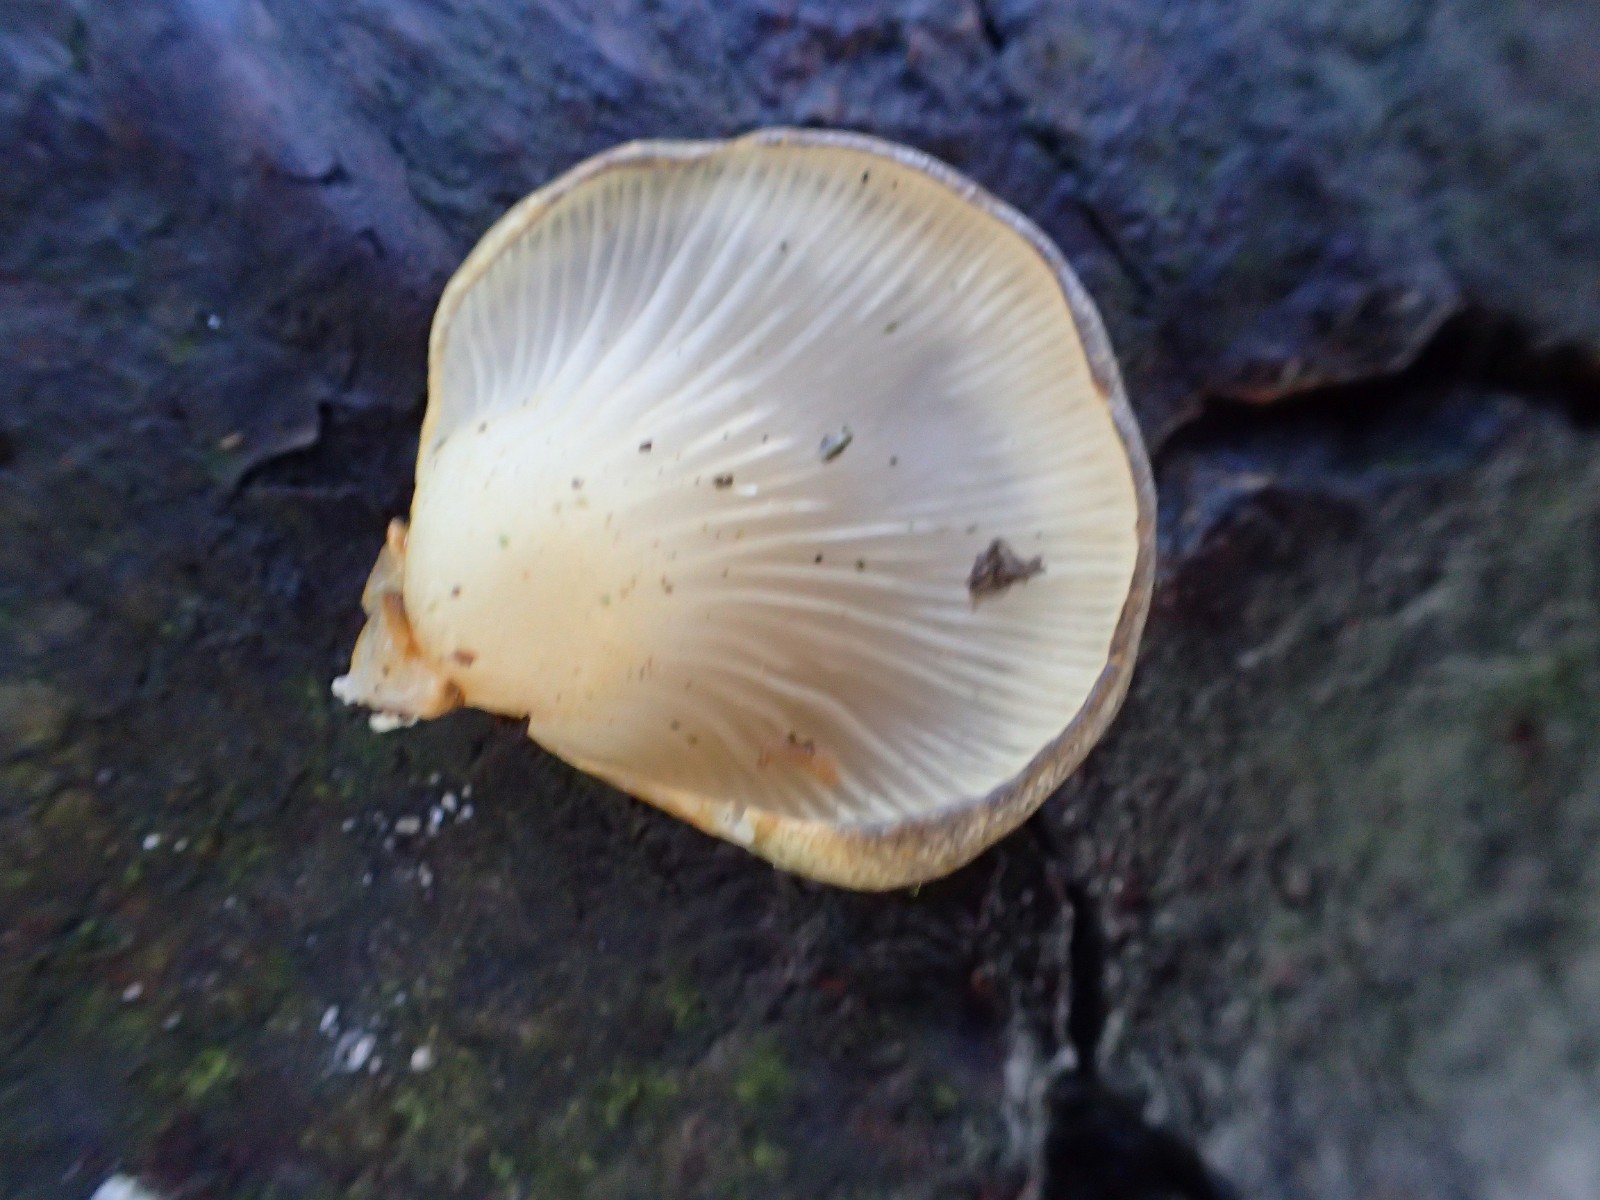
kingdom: Fungi
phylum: Basidiomycota
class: Agaricomycetes
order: Agaricales
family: Pleurotaceae
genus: Pleurotus
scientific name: Pleurotus ostreatus
